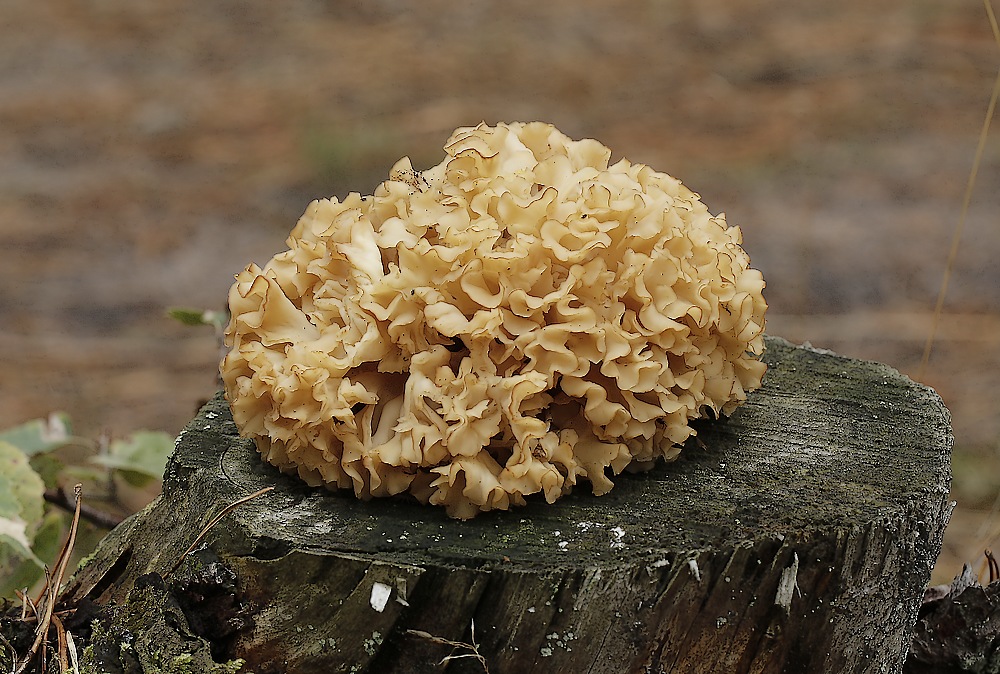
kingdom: Fungi
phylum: Basidiomycota
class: Agaricomycetes
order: Polyporales
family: Sparassidaceae
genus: Sparassis
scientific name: Sparassis crispa
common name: kruset blomkålssvamp
